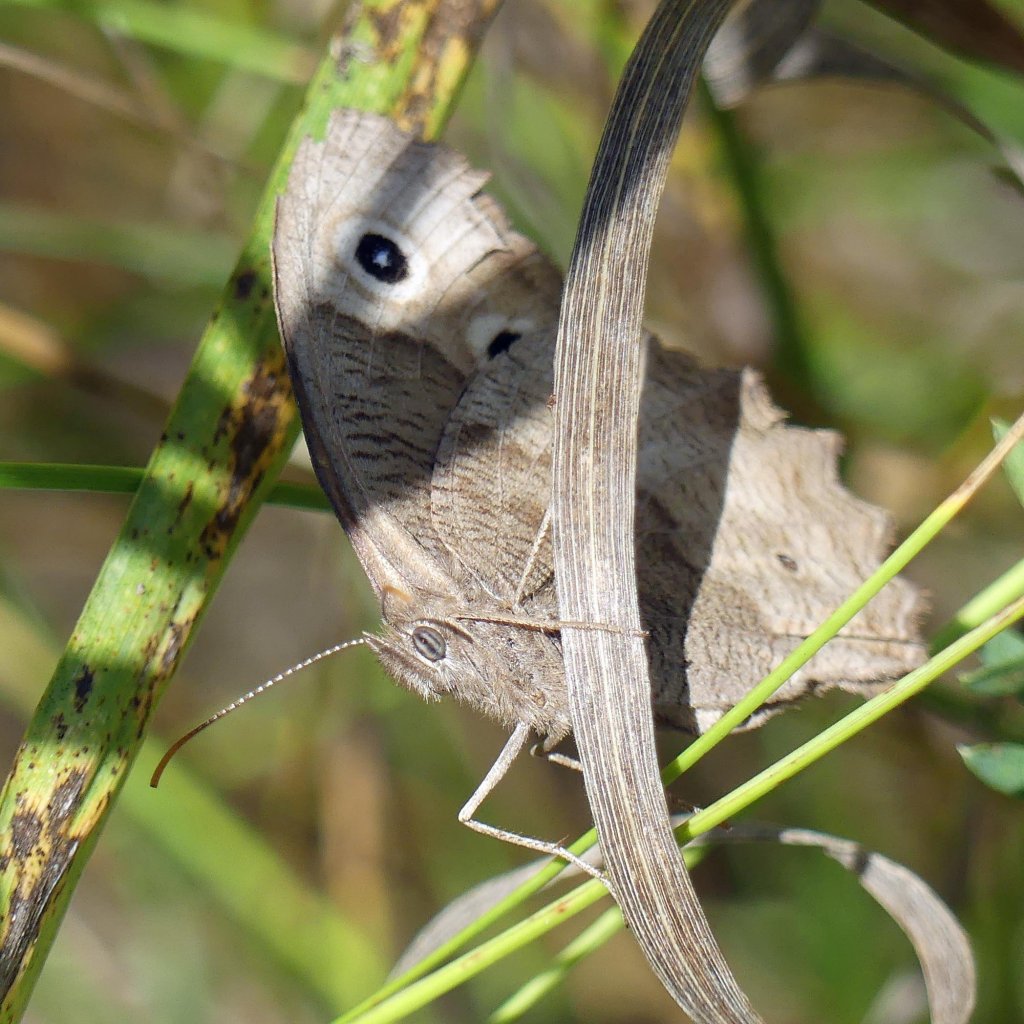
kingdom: Animalia
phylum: Arthropoda
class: Insecta
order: Lepidoptera
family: Nymphalidae
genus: Cercyonis
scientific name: Cercyonis pegala
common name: Common Wood-Nymph
